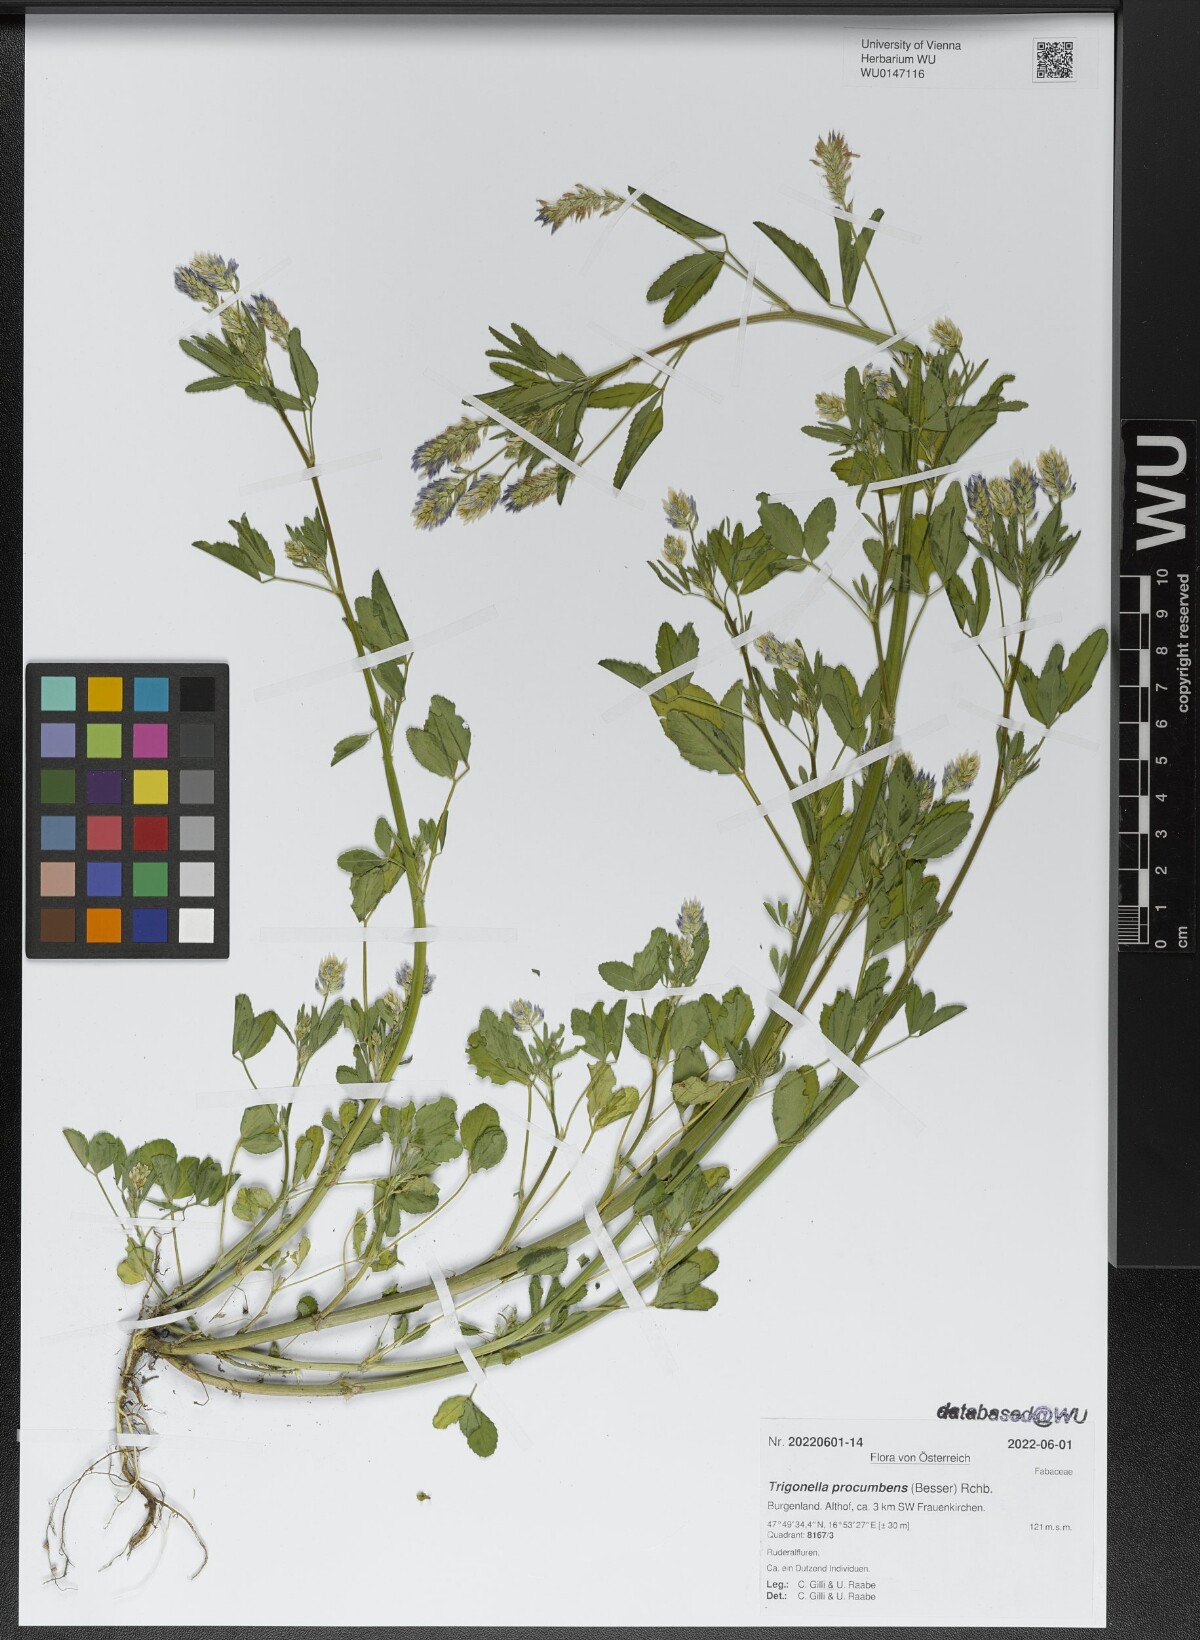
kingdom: Plantae
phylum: Tracheophyta
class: Magnoliopsida
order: Fabales
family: Fabaceae
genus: Trigonella
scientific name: Trigonella procumbens
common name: Trailing fenugreek
